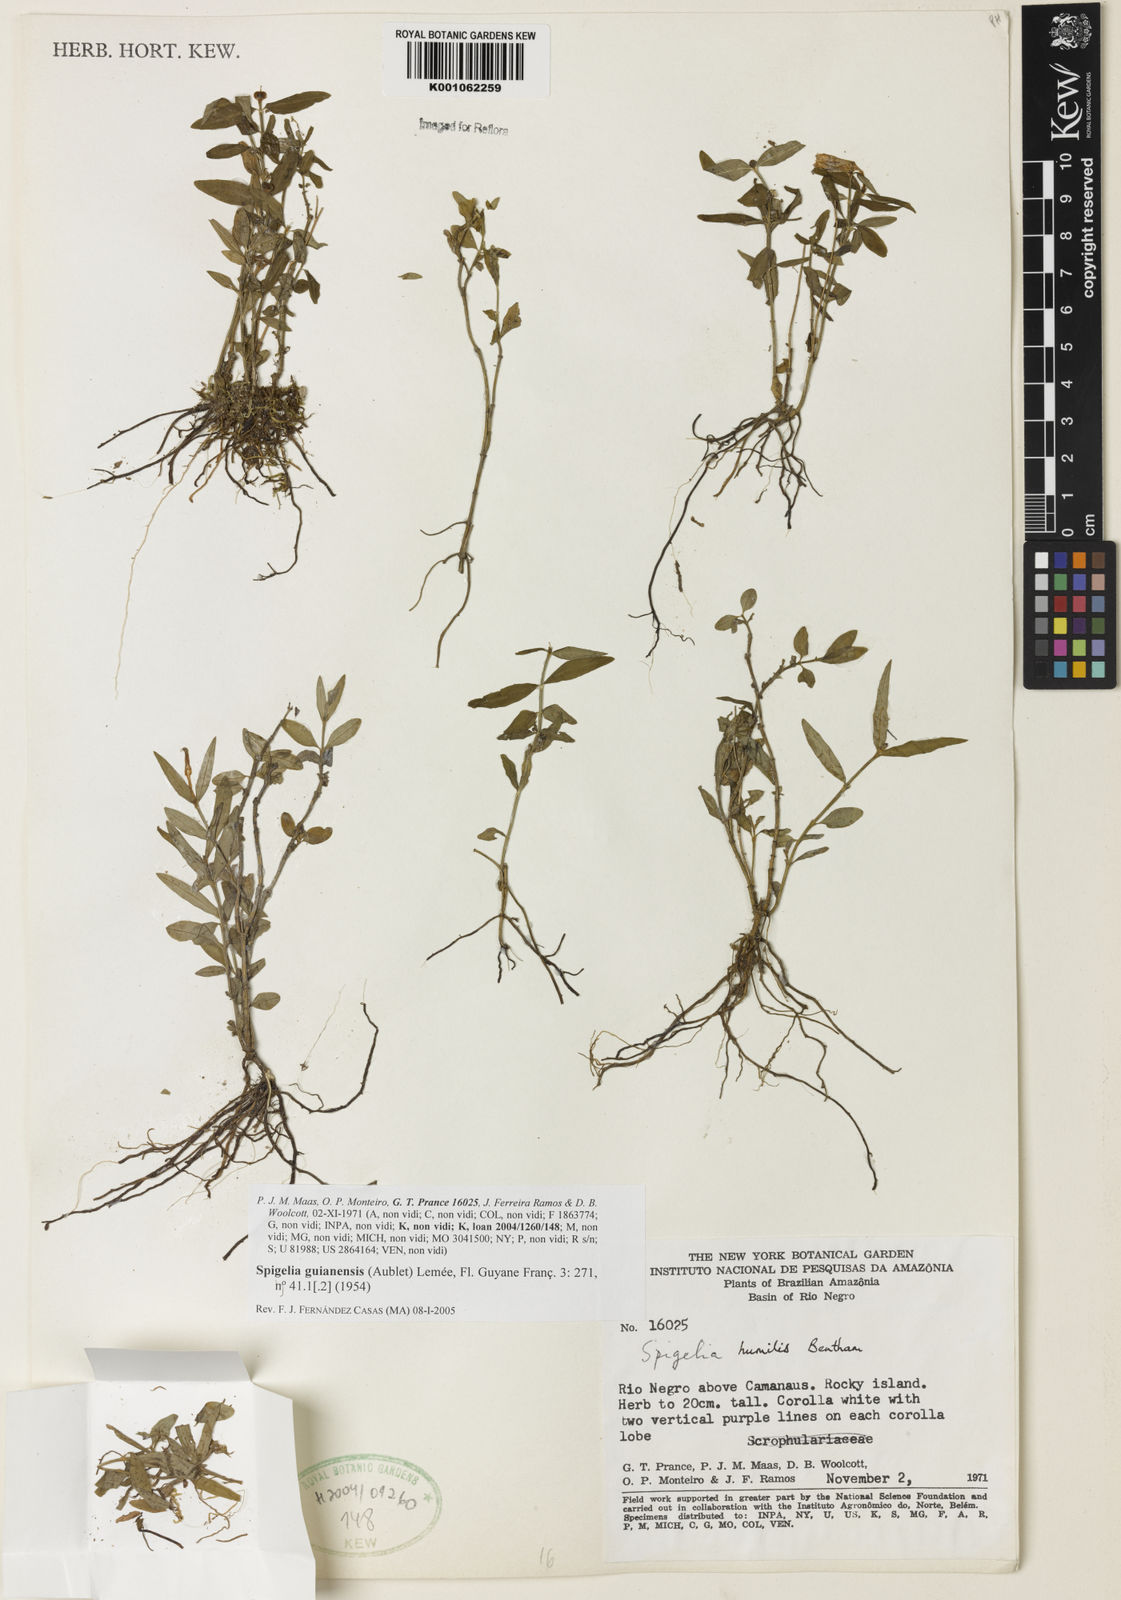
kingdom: Plantae
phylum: Tracheophyta
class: Magnoliopsida
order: Gentianales
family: Loganiaceae
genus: Spigelia
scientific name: Spigelia
